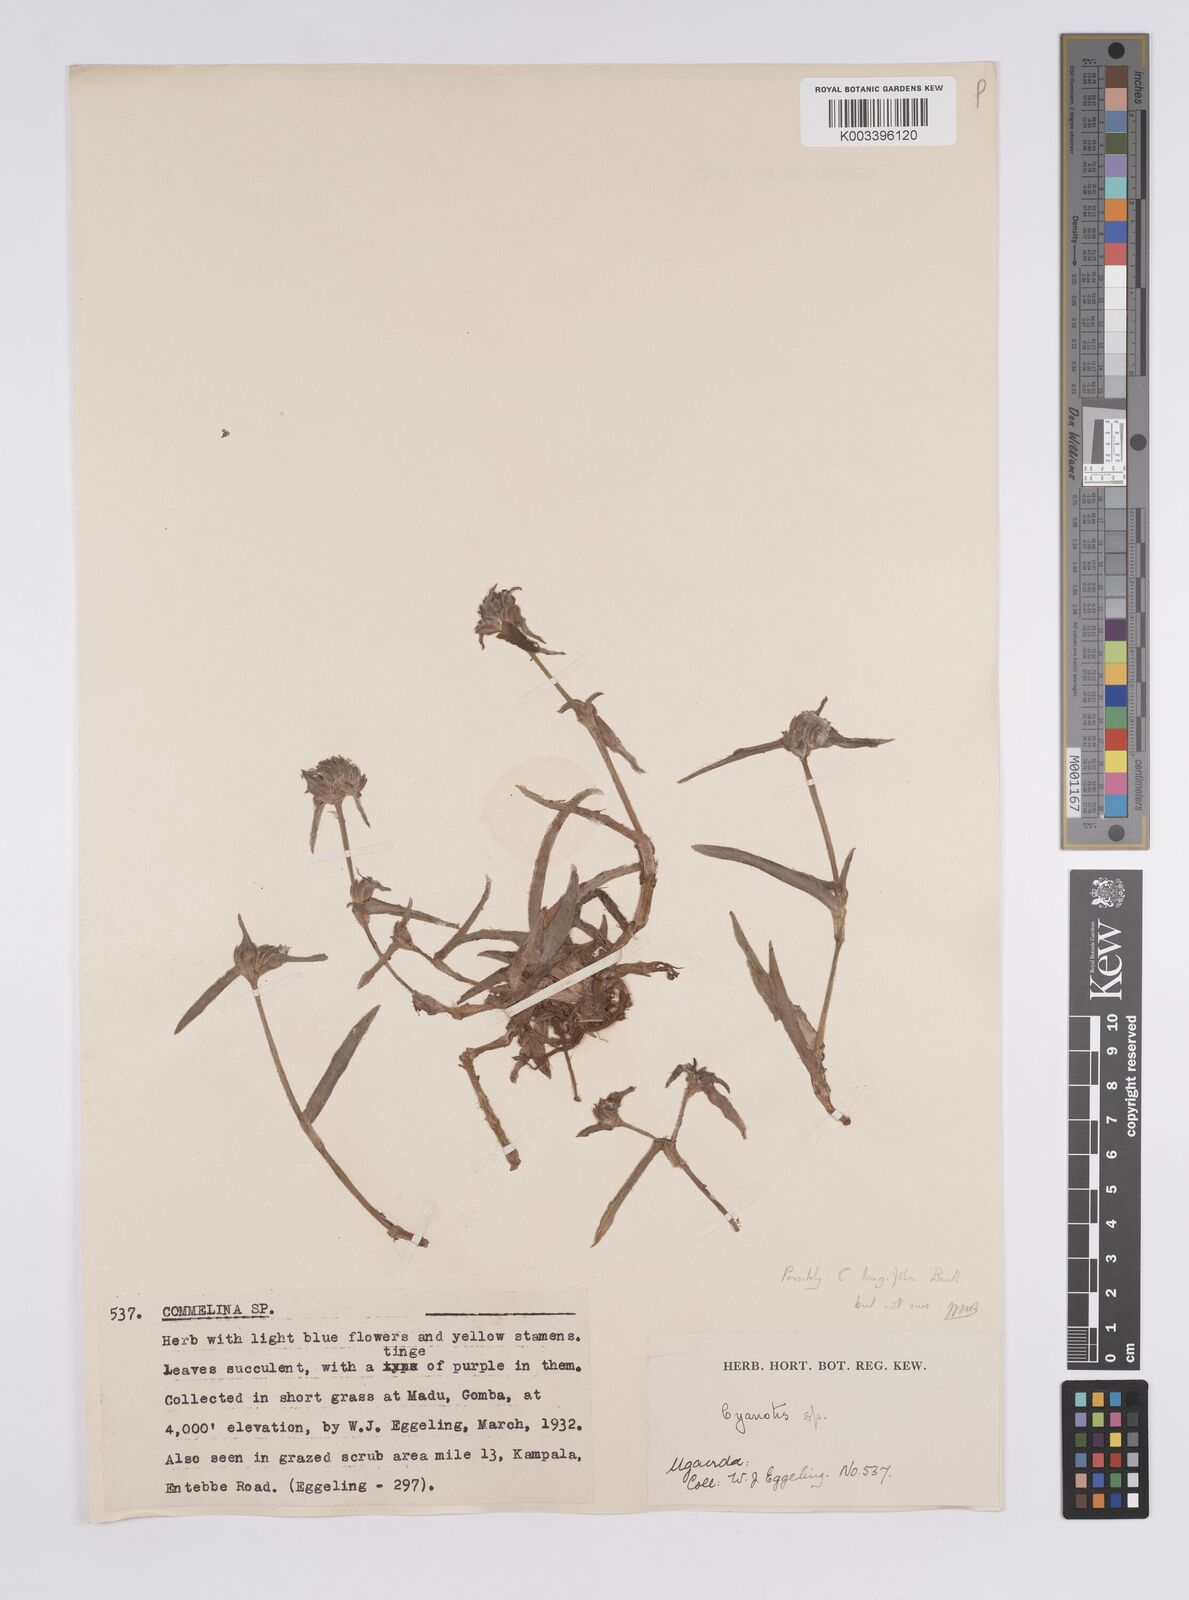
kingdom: Plantae
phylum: Tracheophyta
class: Liliopsida
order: Commelinales
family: Commelinaceae
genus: Cyanotis
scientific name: Cyanotis
